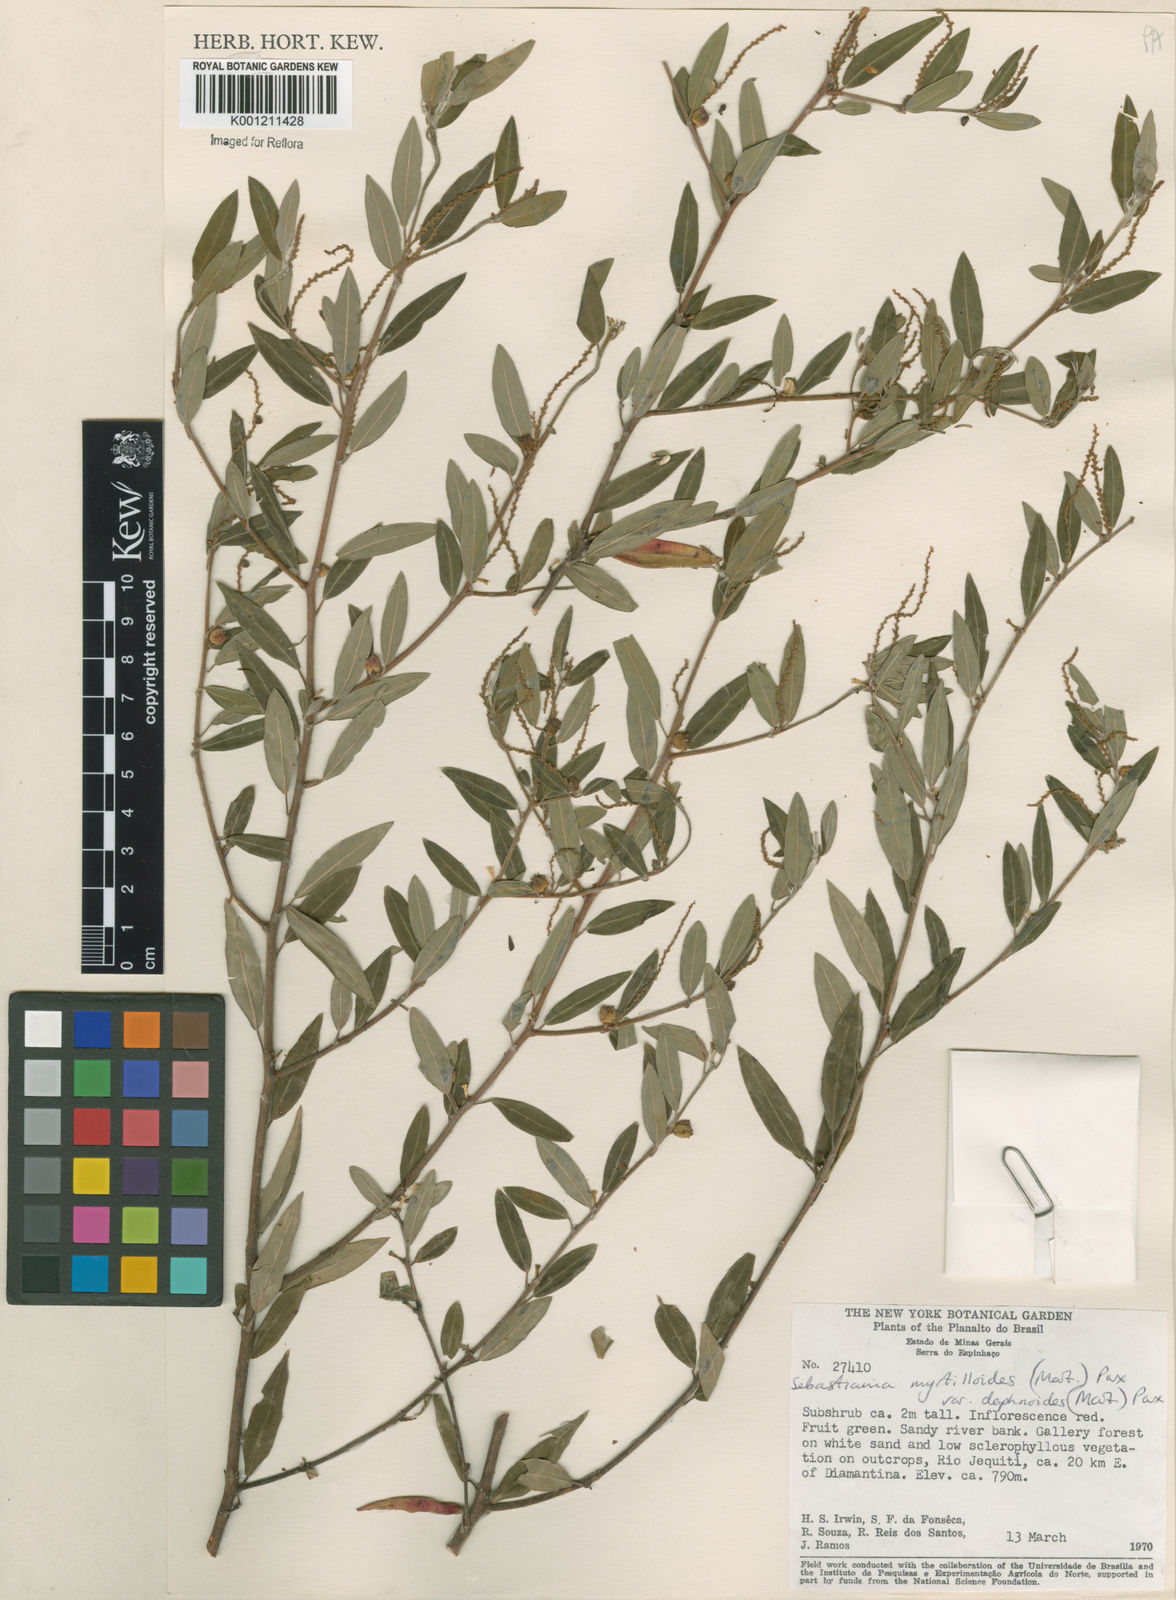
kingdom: Plantae
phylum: Tracheophyta
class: Magnoliopsida
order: Malpighiales
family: Euphorbiaceae
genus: Microstachys
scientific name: Microstachys
